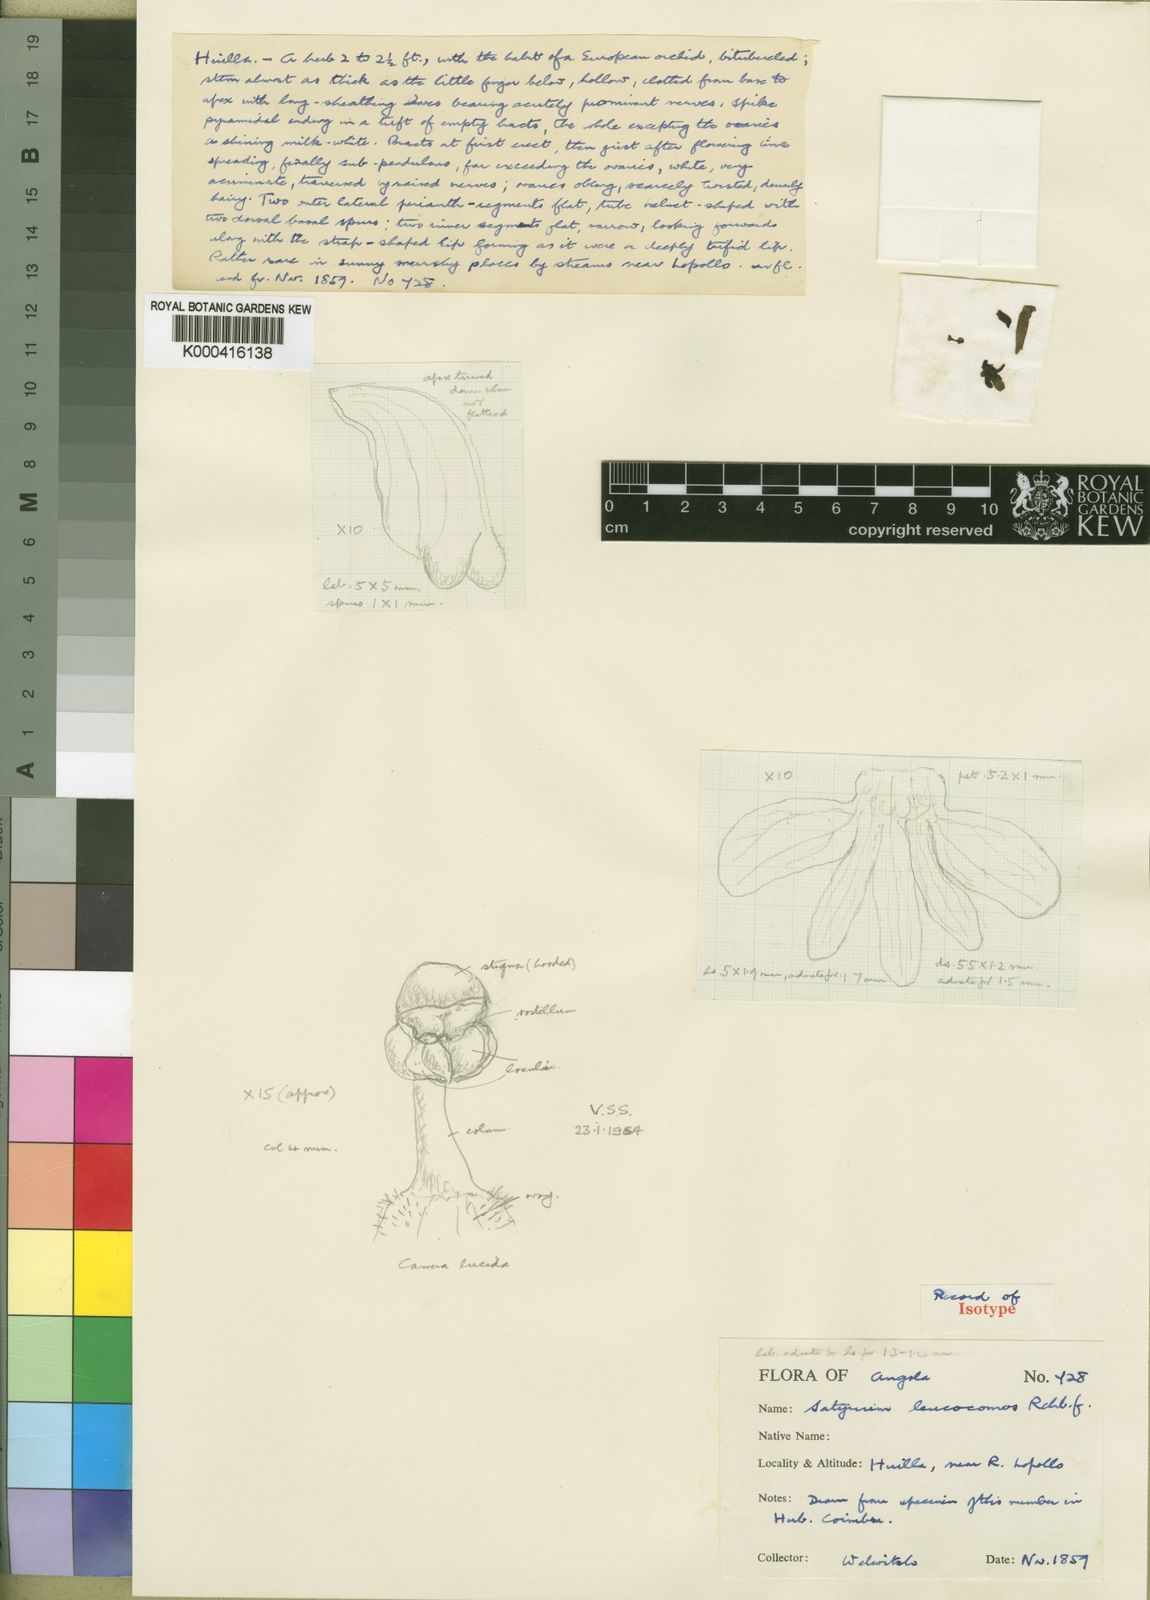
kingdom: Plantae
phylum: Tracheophyta
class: Liliopsida
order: Asparagales
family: Orchidaceae
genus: Satyrium
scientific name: Satyrium trinerve
